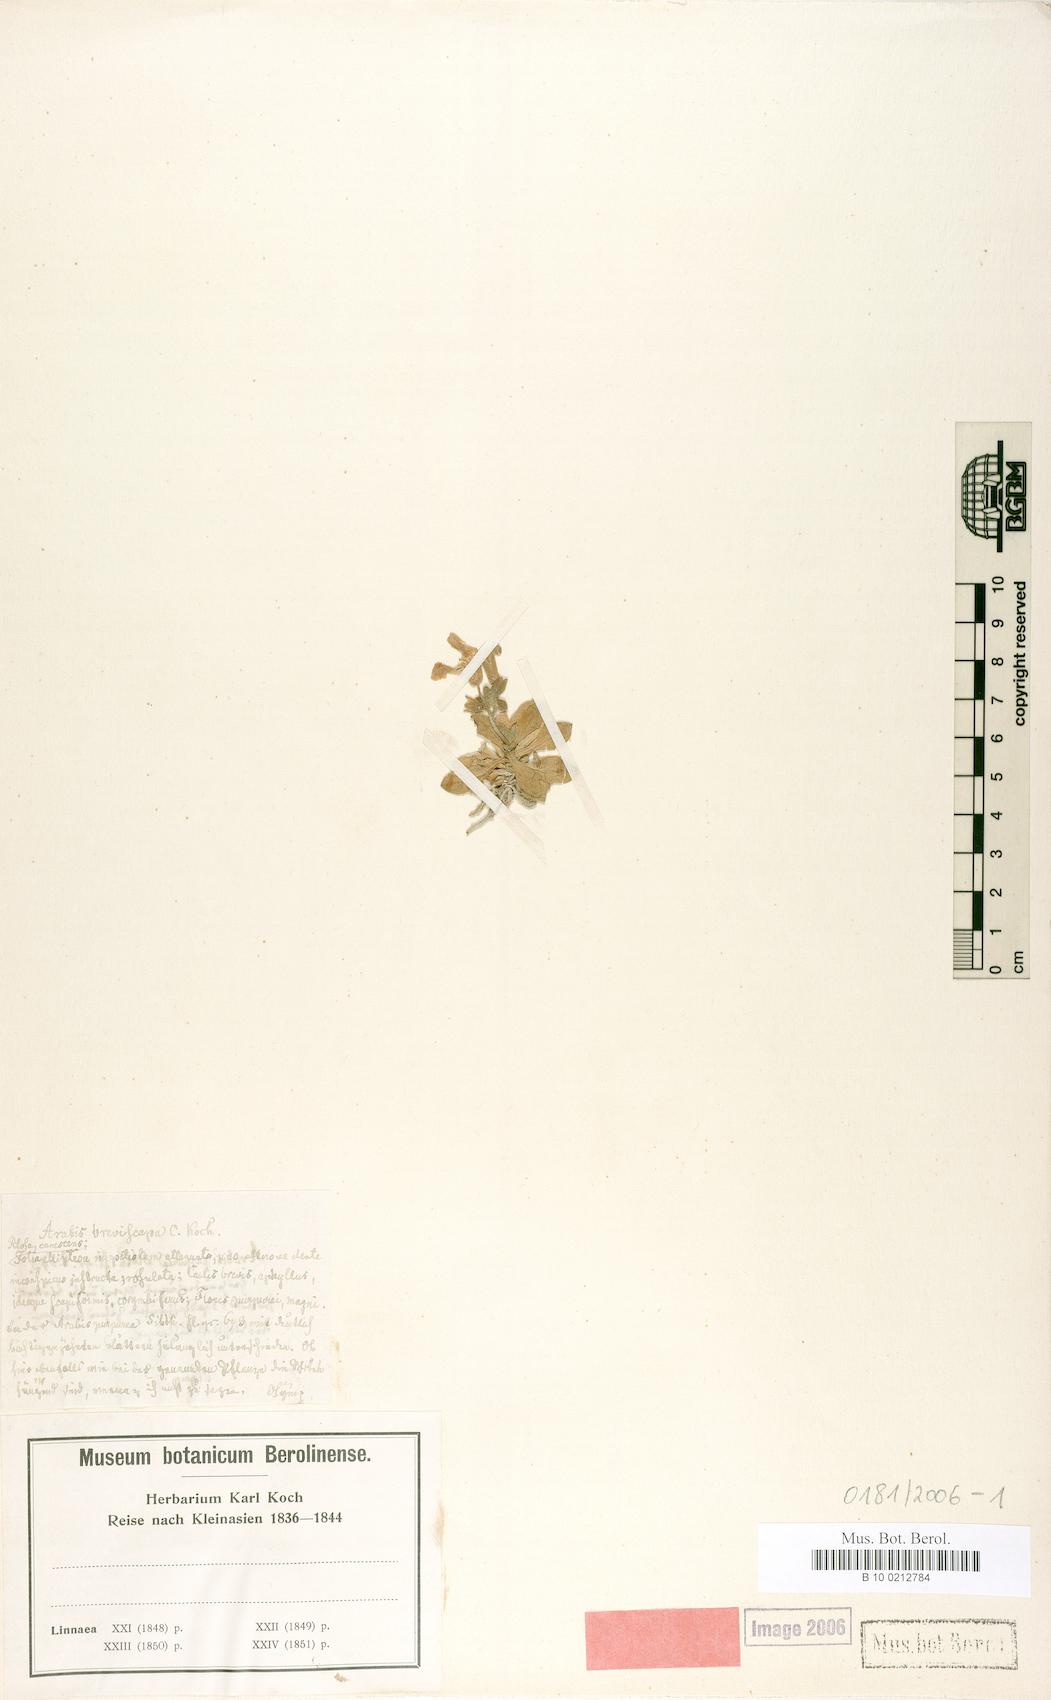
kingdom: Plantae
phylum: Tracheophyta
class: Magnoliopsida
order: Brassicales
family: Brassicaceae
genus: Arabis
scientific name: Arabis
